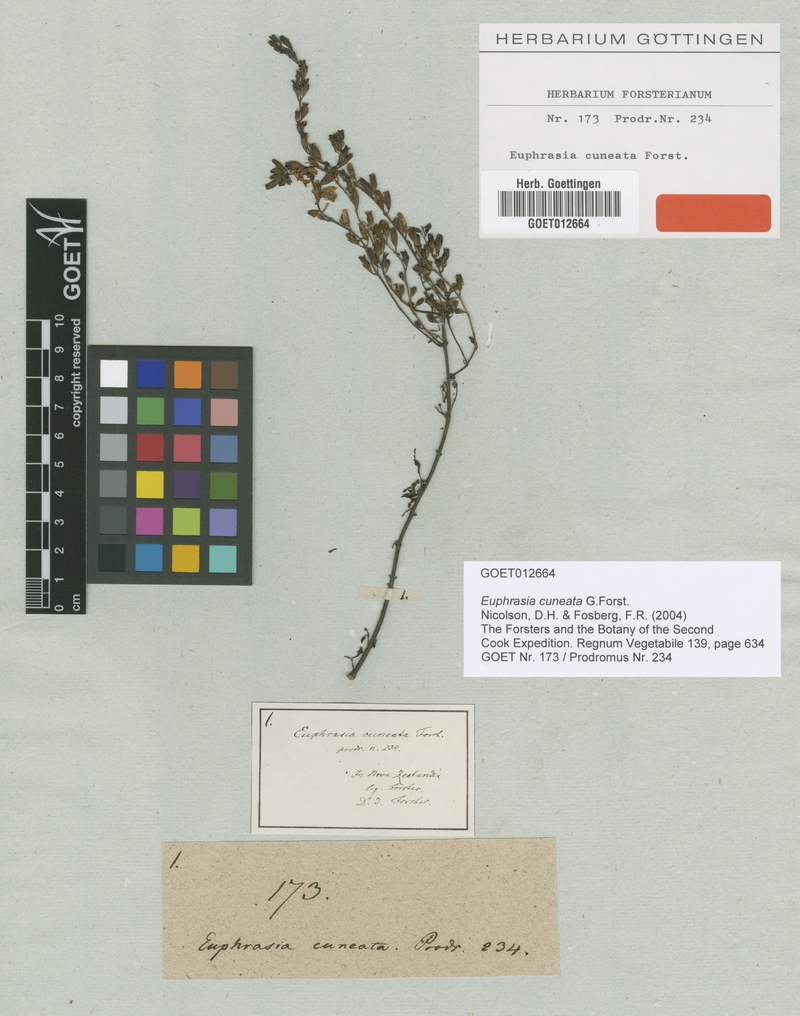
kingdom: Plantae
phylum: Tracheophyta
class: Magnoliopsida
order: Lamiales
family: Orobanchaceae
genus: Euphrasia
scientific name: Euphrasia cuneata
